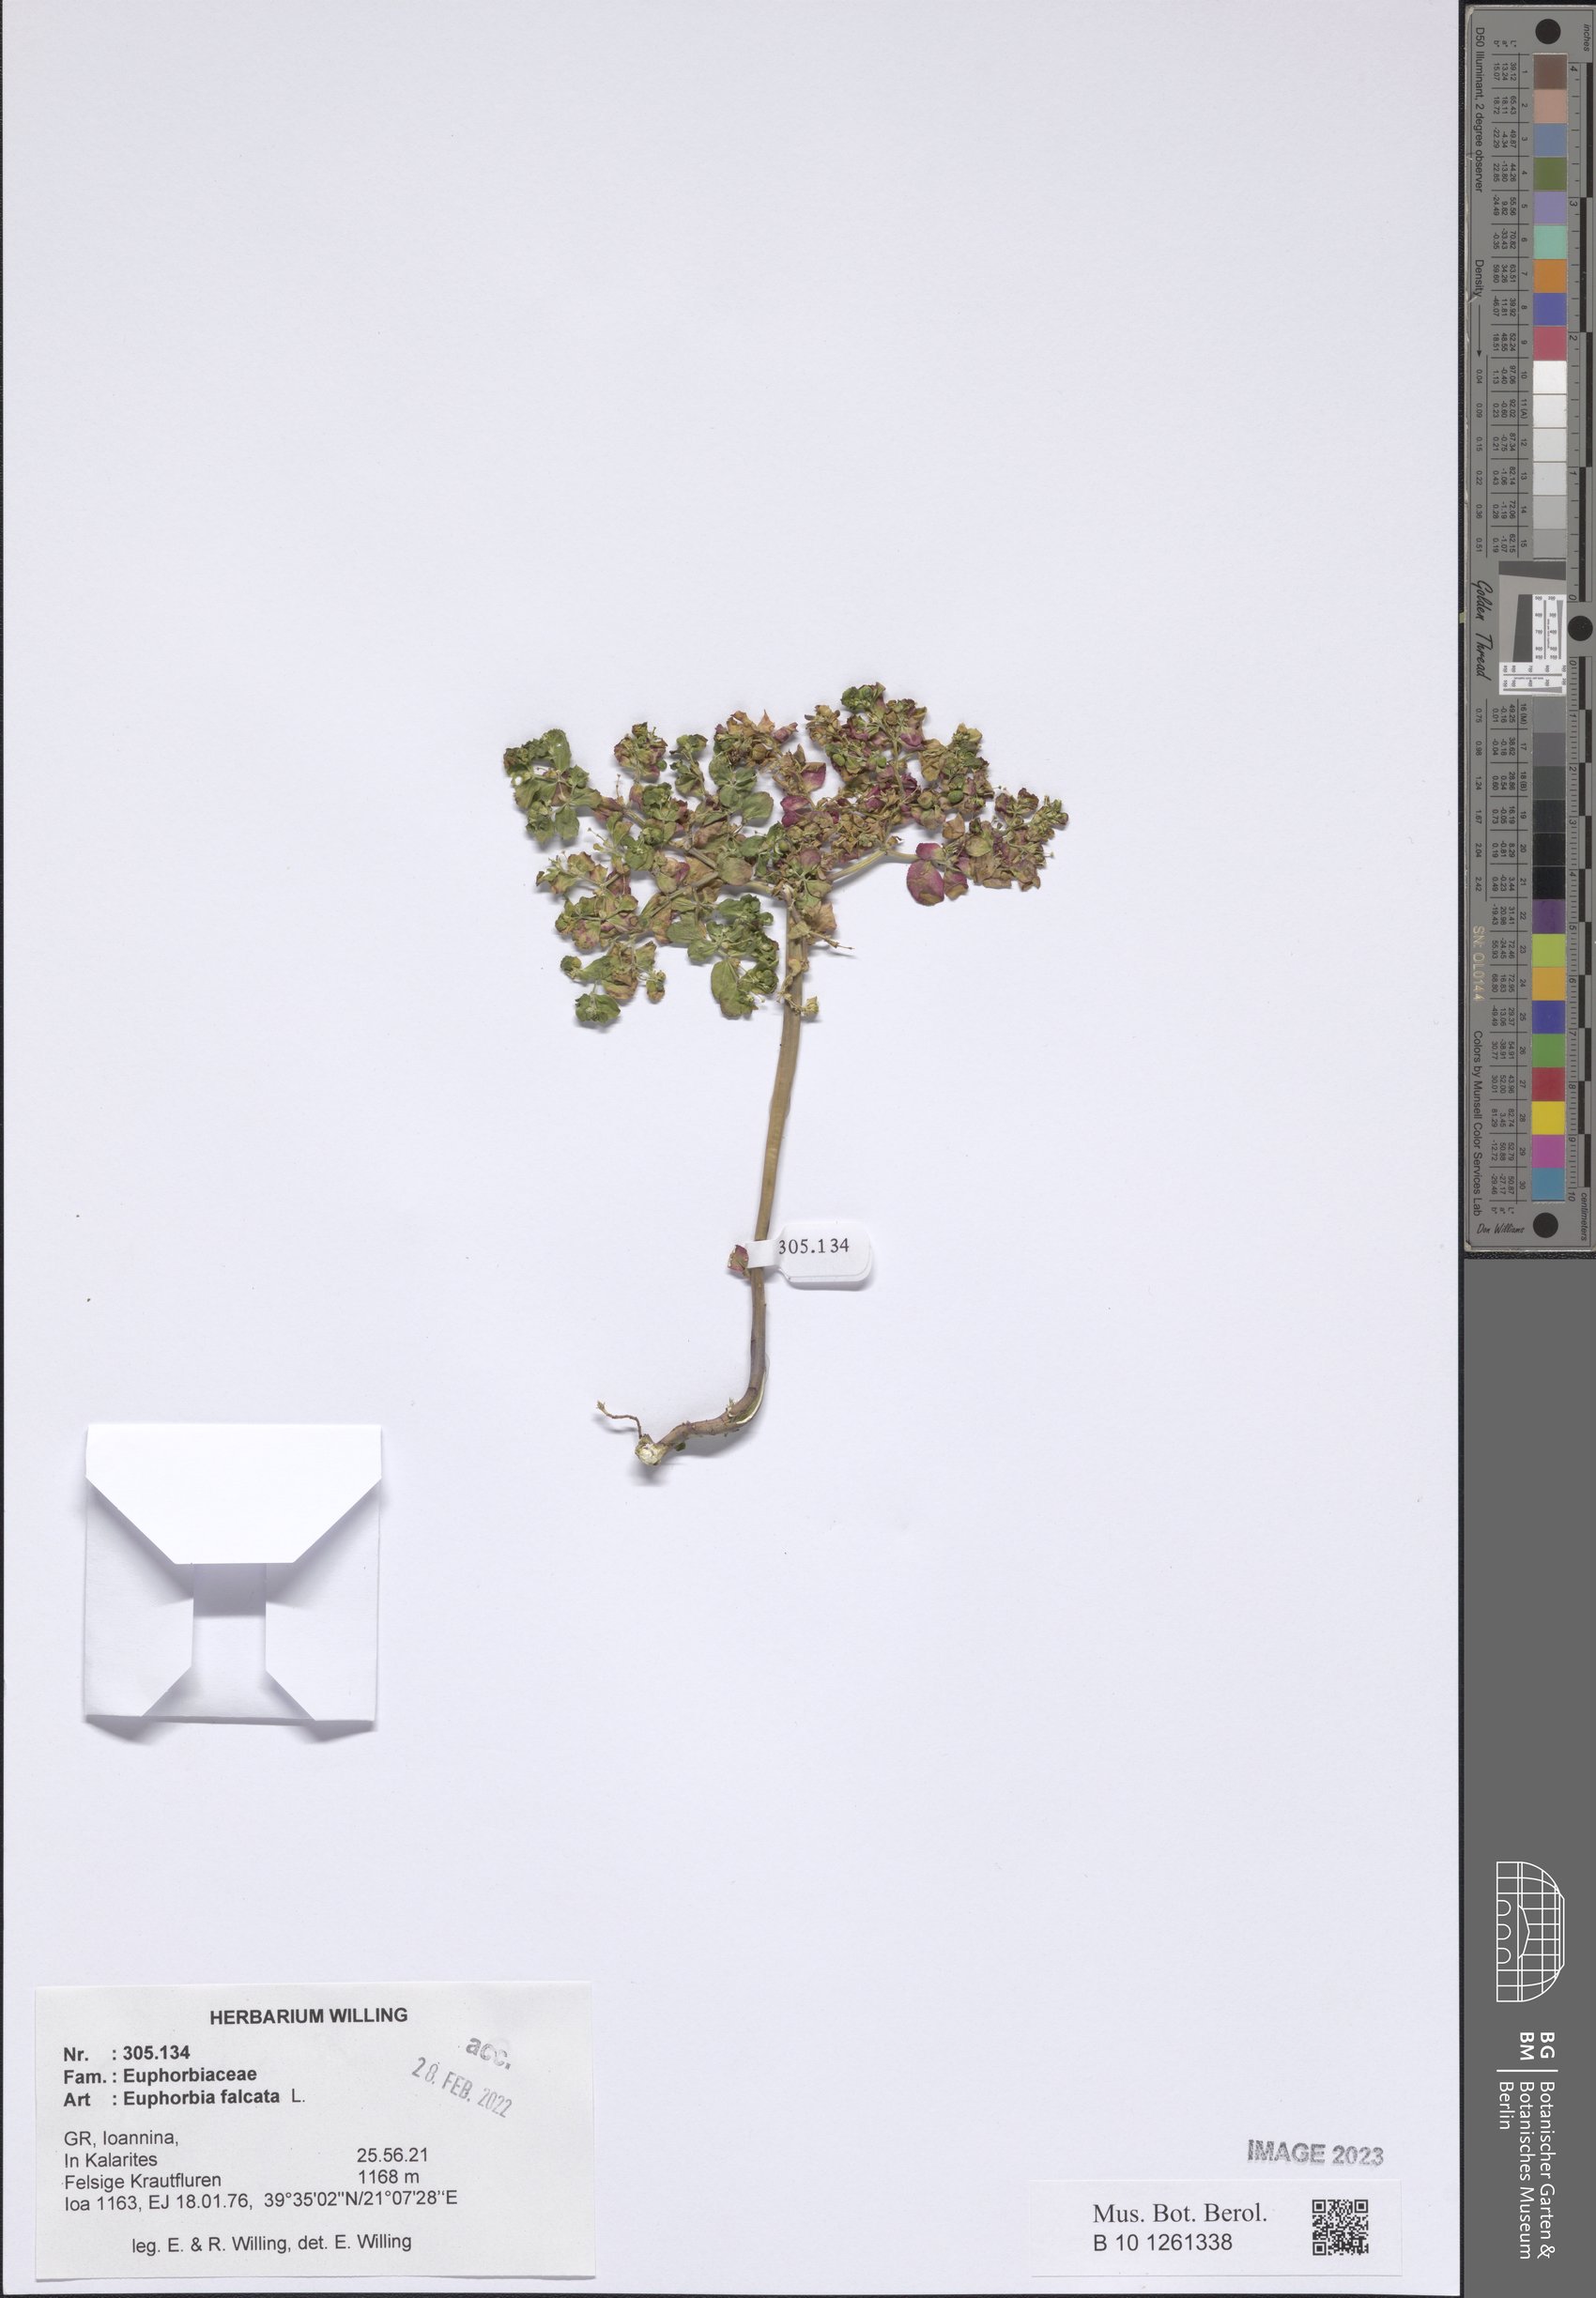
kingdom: Plantae
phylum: Tracheophyta
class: Magnoliopsida
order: Malpighiales
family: Euphorbiaceae
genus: Euphorbia
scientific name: Euphorbia falcata
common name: Sickle spurge
